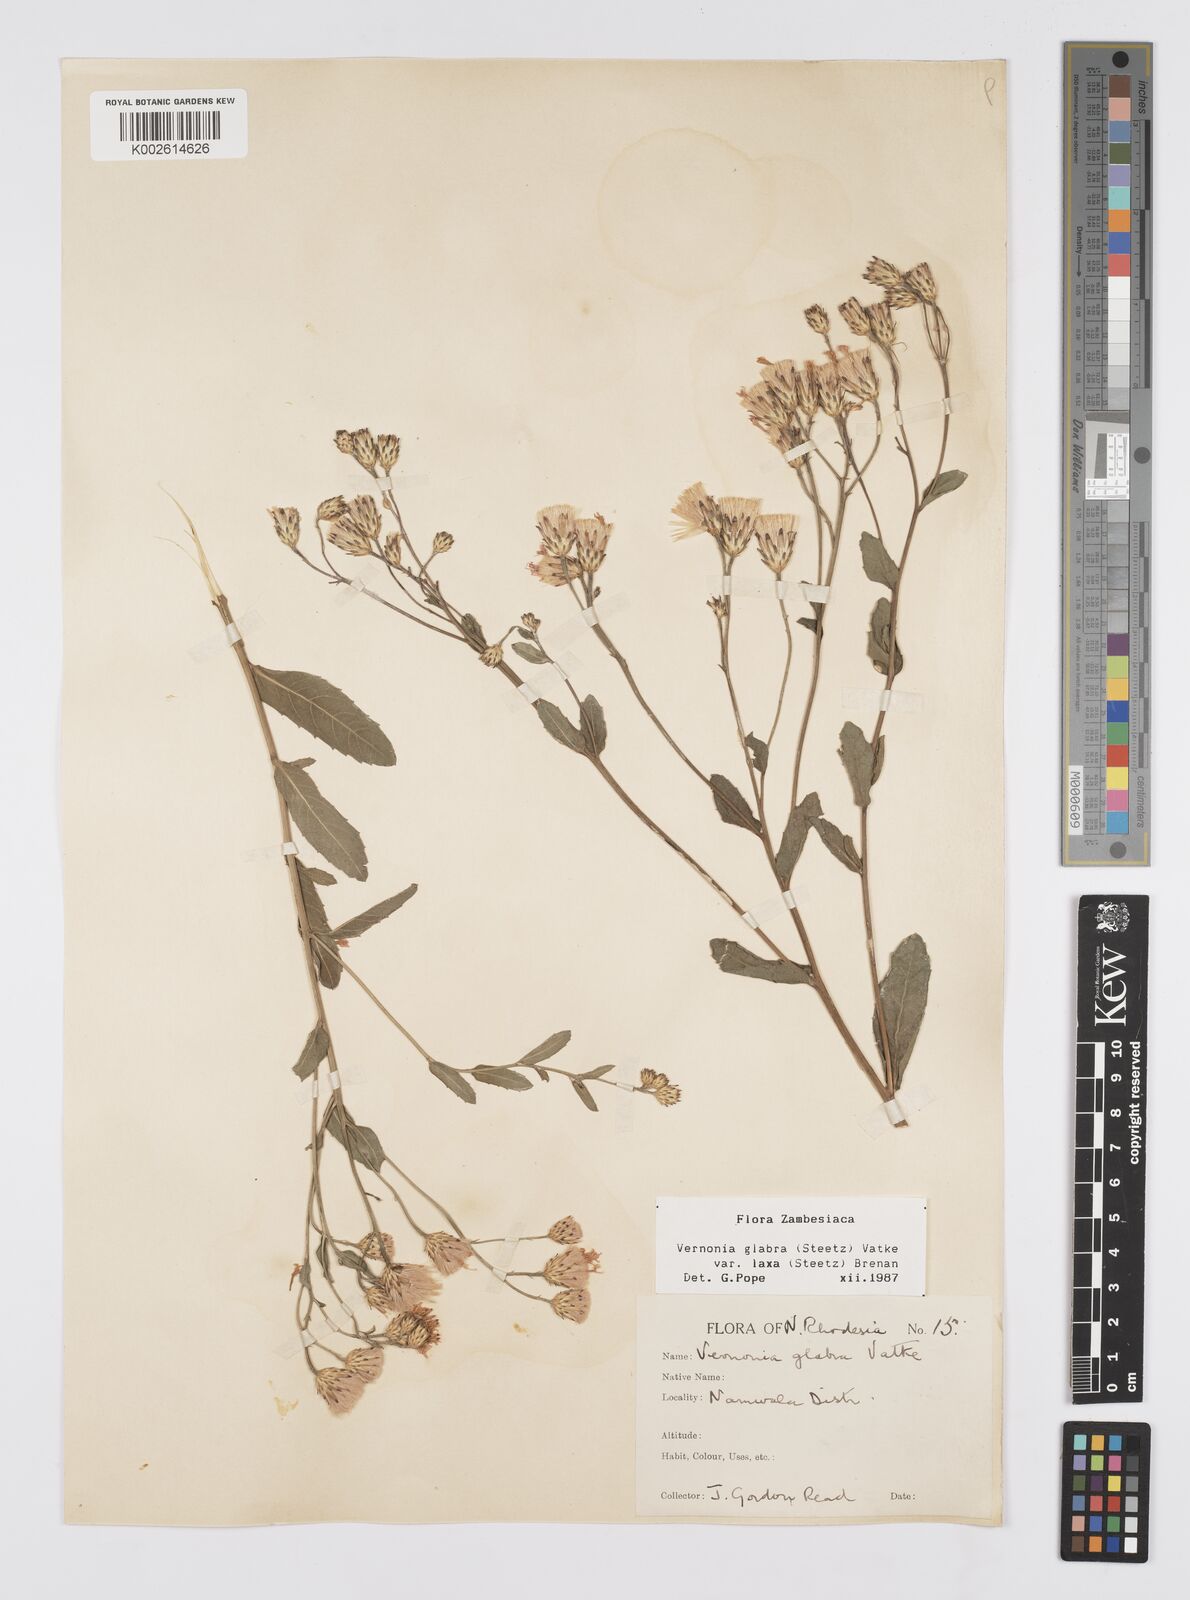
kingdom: Plantae
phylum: Tracheophyta
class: Magnoliopsida
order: Asterales
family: Asteraceae
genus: Linzia
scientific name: Linzia glabra
